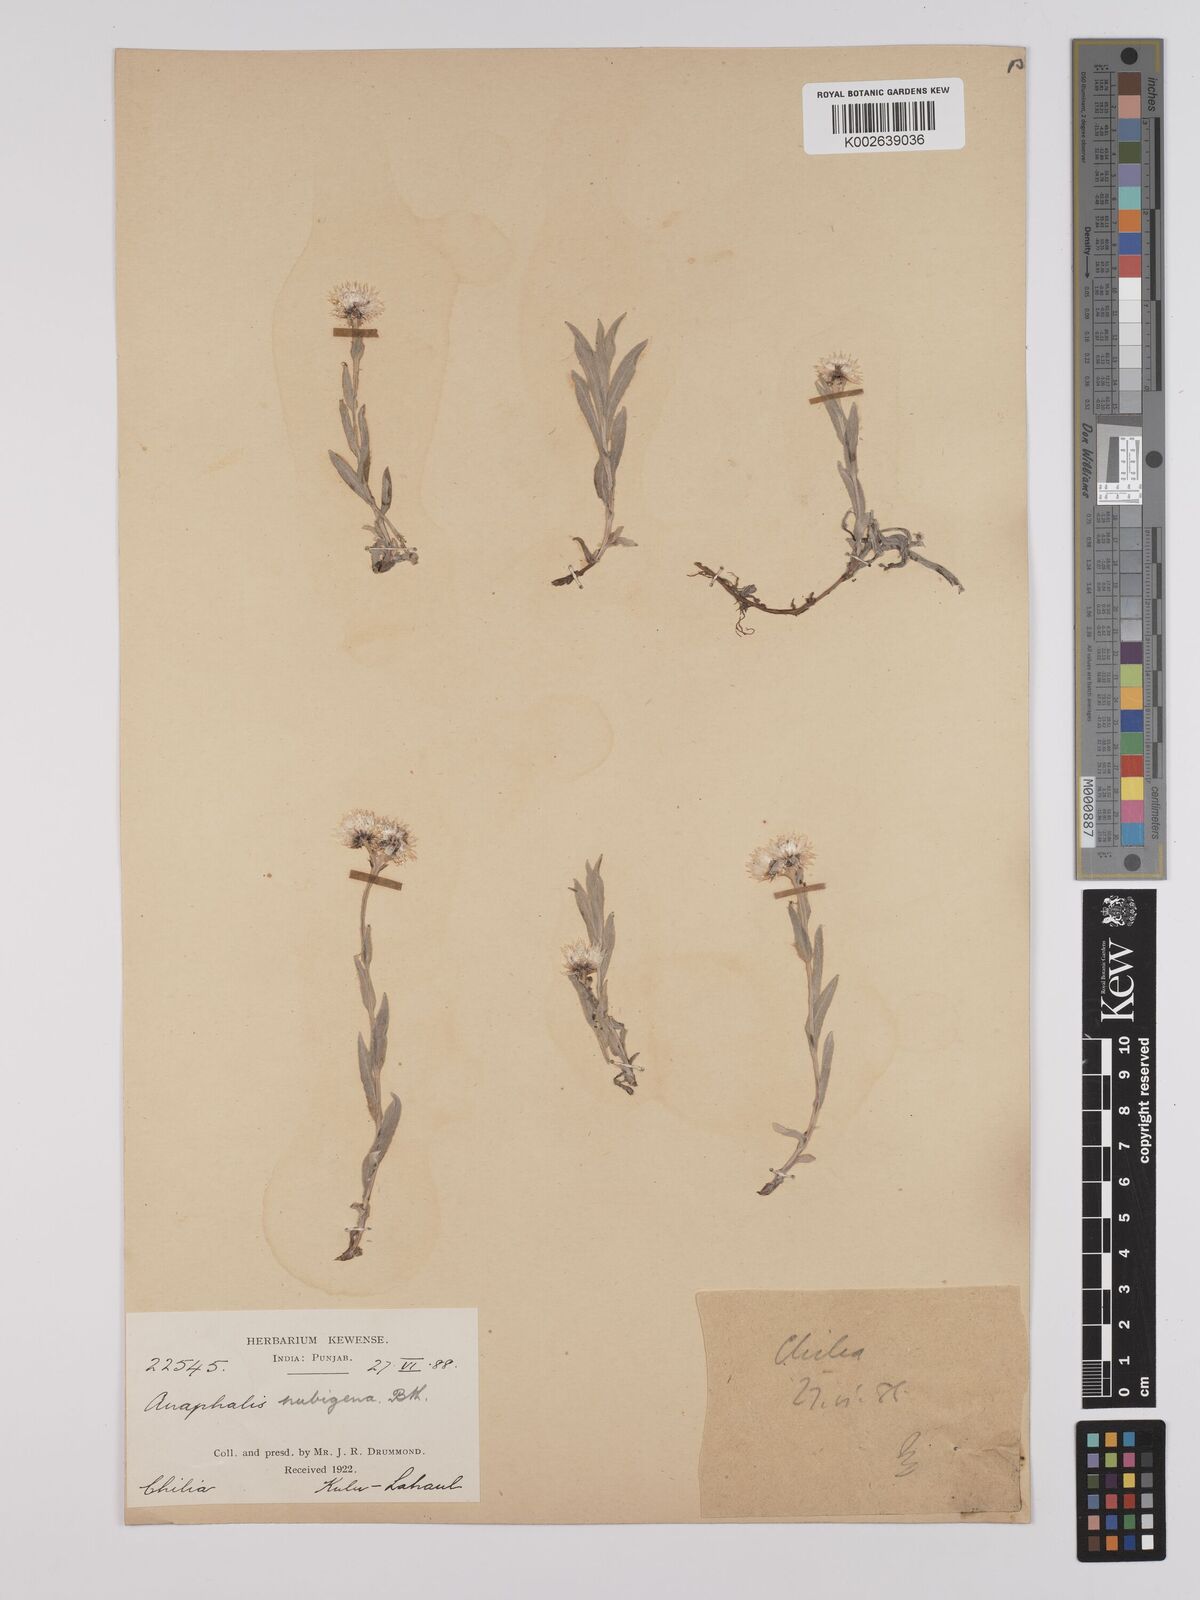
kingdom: Plantae
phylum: Tracheophyta
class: Magnoliopsida
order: Asterales
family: Asteraceae
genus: Anaphalis
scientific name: Anaphalis nepalensis
